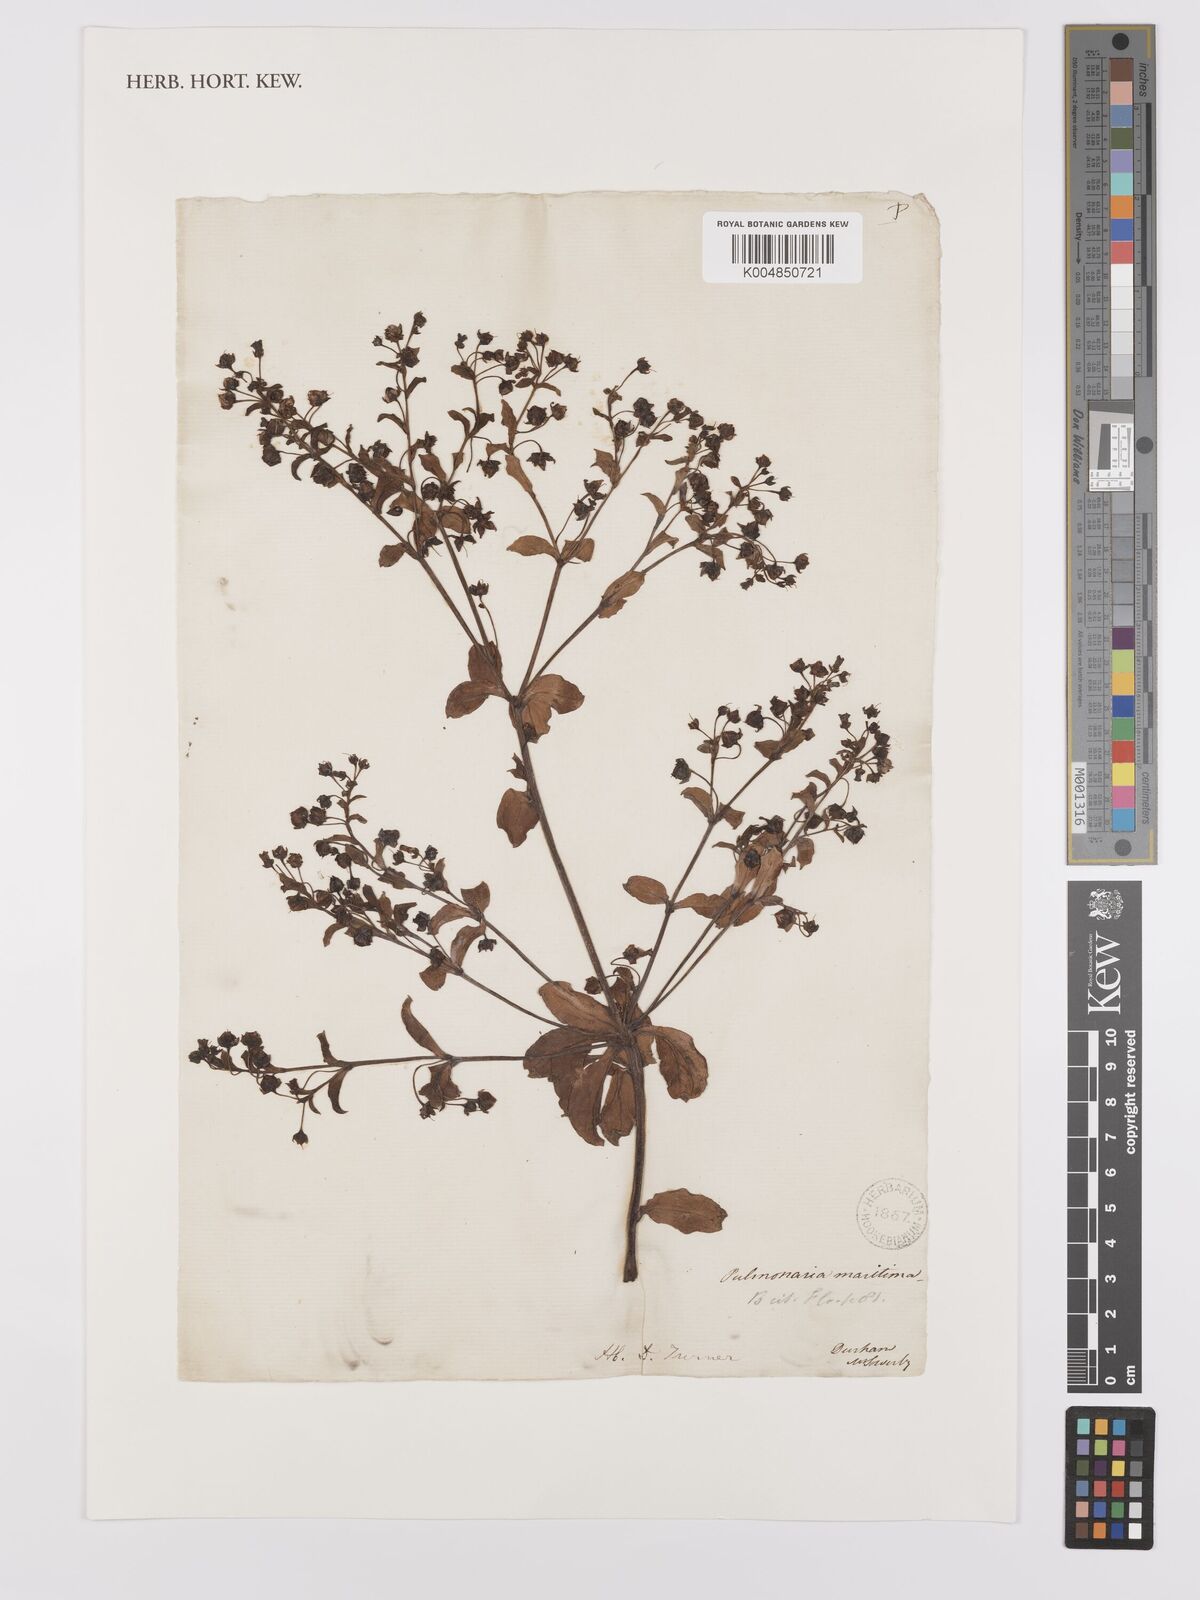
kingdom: Plantae
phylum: Tracheophyta
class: Magnoliopsida
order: Boraginales
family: Boraginaceae
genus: Mertensia
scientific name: Mertensia maritima
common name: Oysterplant
